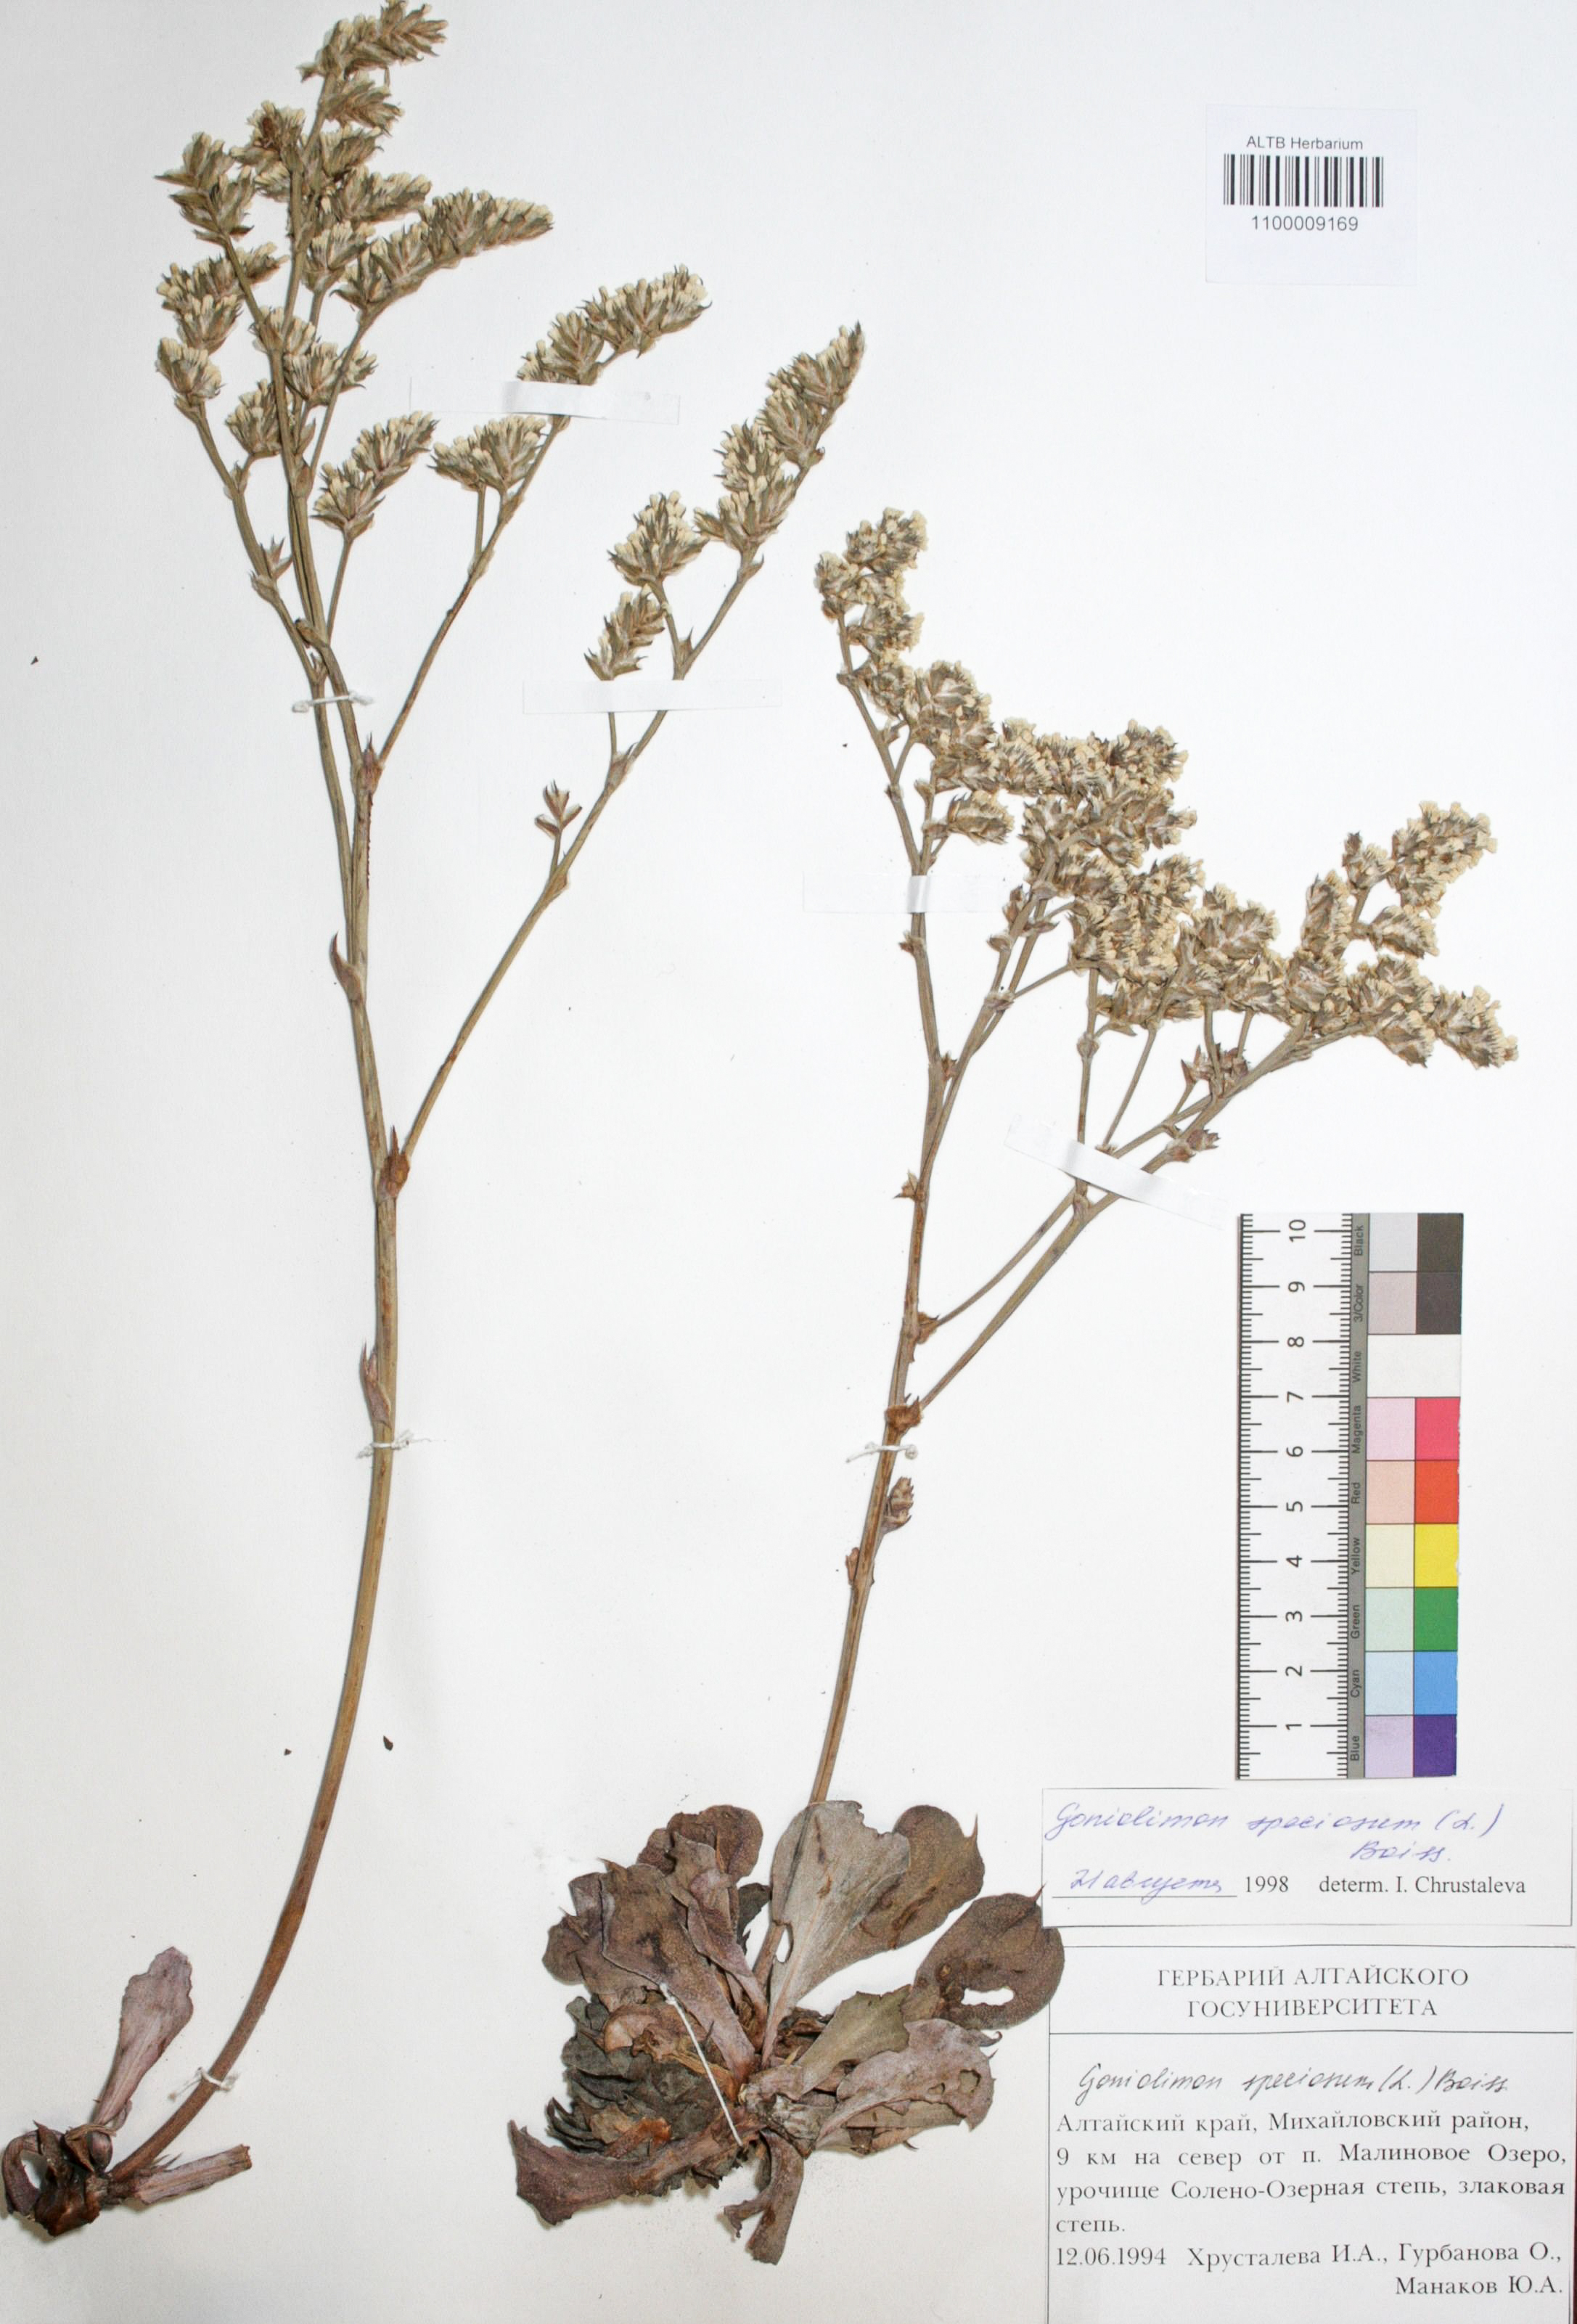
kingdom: Plantae
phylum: Tracheophyta
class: Magnoliopsida
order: Caryophyllales
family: Plumbaginaceae
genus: Goniolimon
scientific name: Goniolimon speciosum
